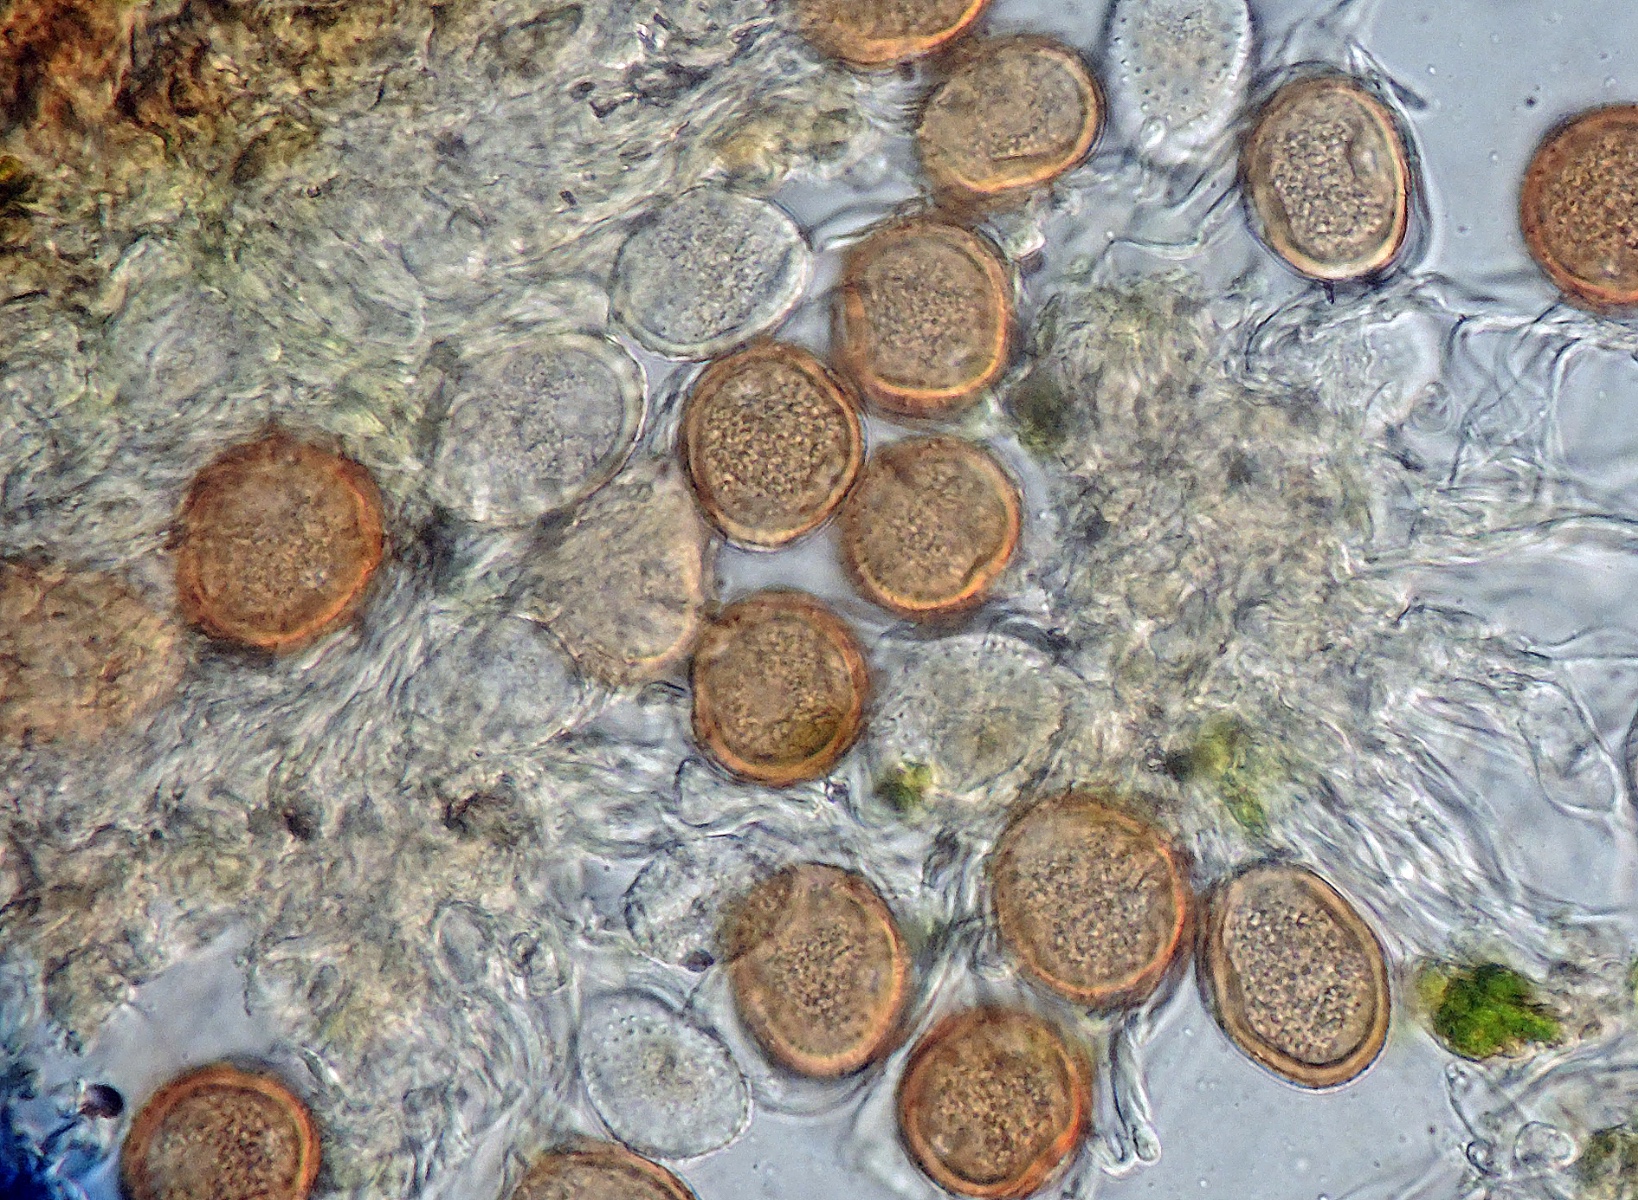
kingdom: Fungi
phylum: Basidiomycota
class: Pucciniomycetes
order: Pucciniales
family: Pucciniaceae
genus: Uromyces
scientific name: Uromyces fallens
